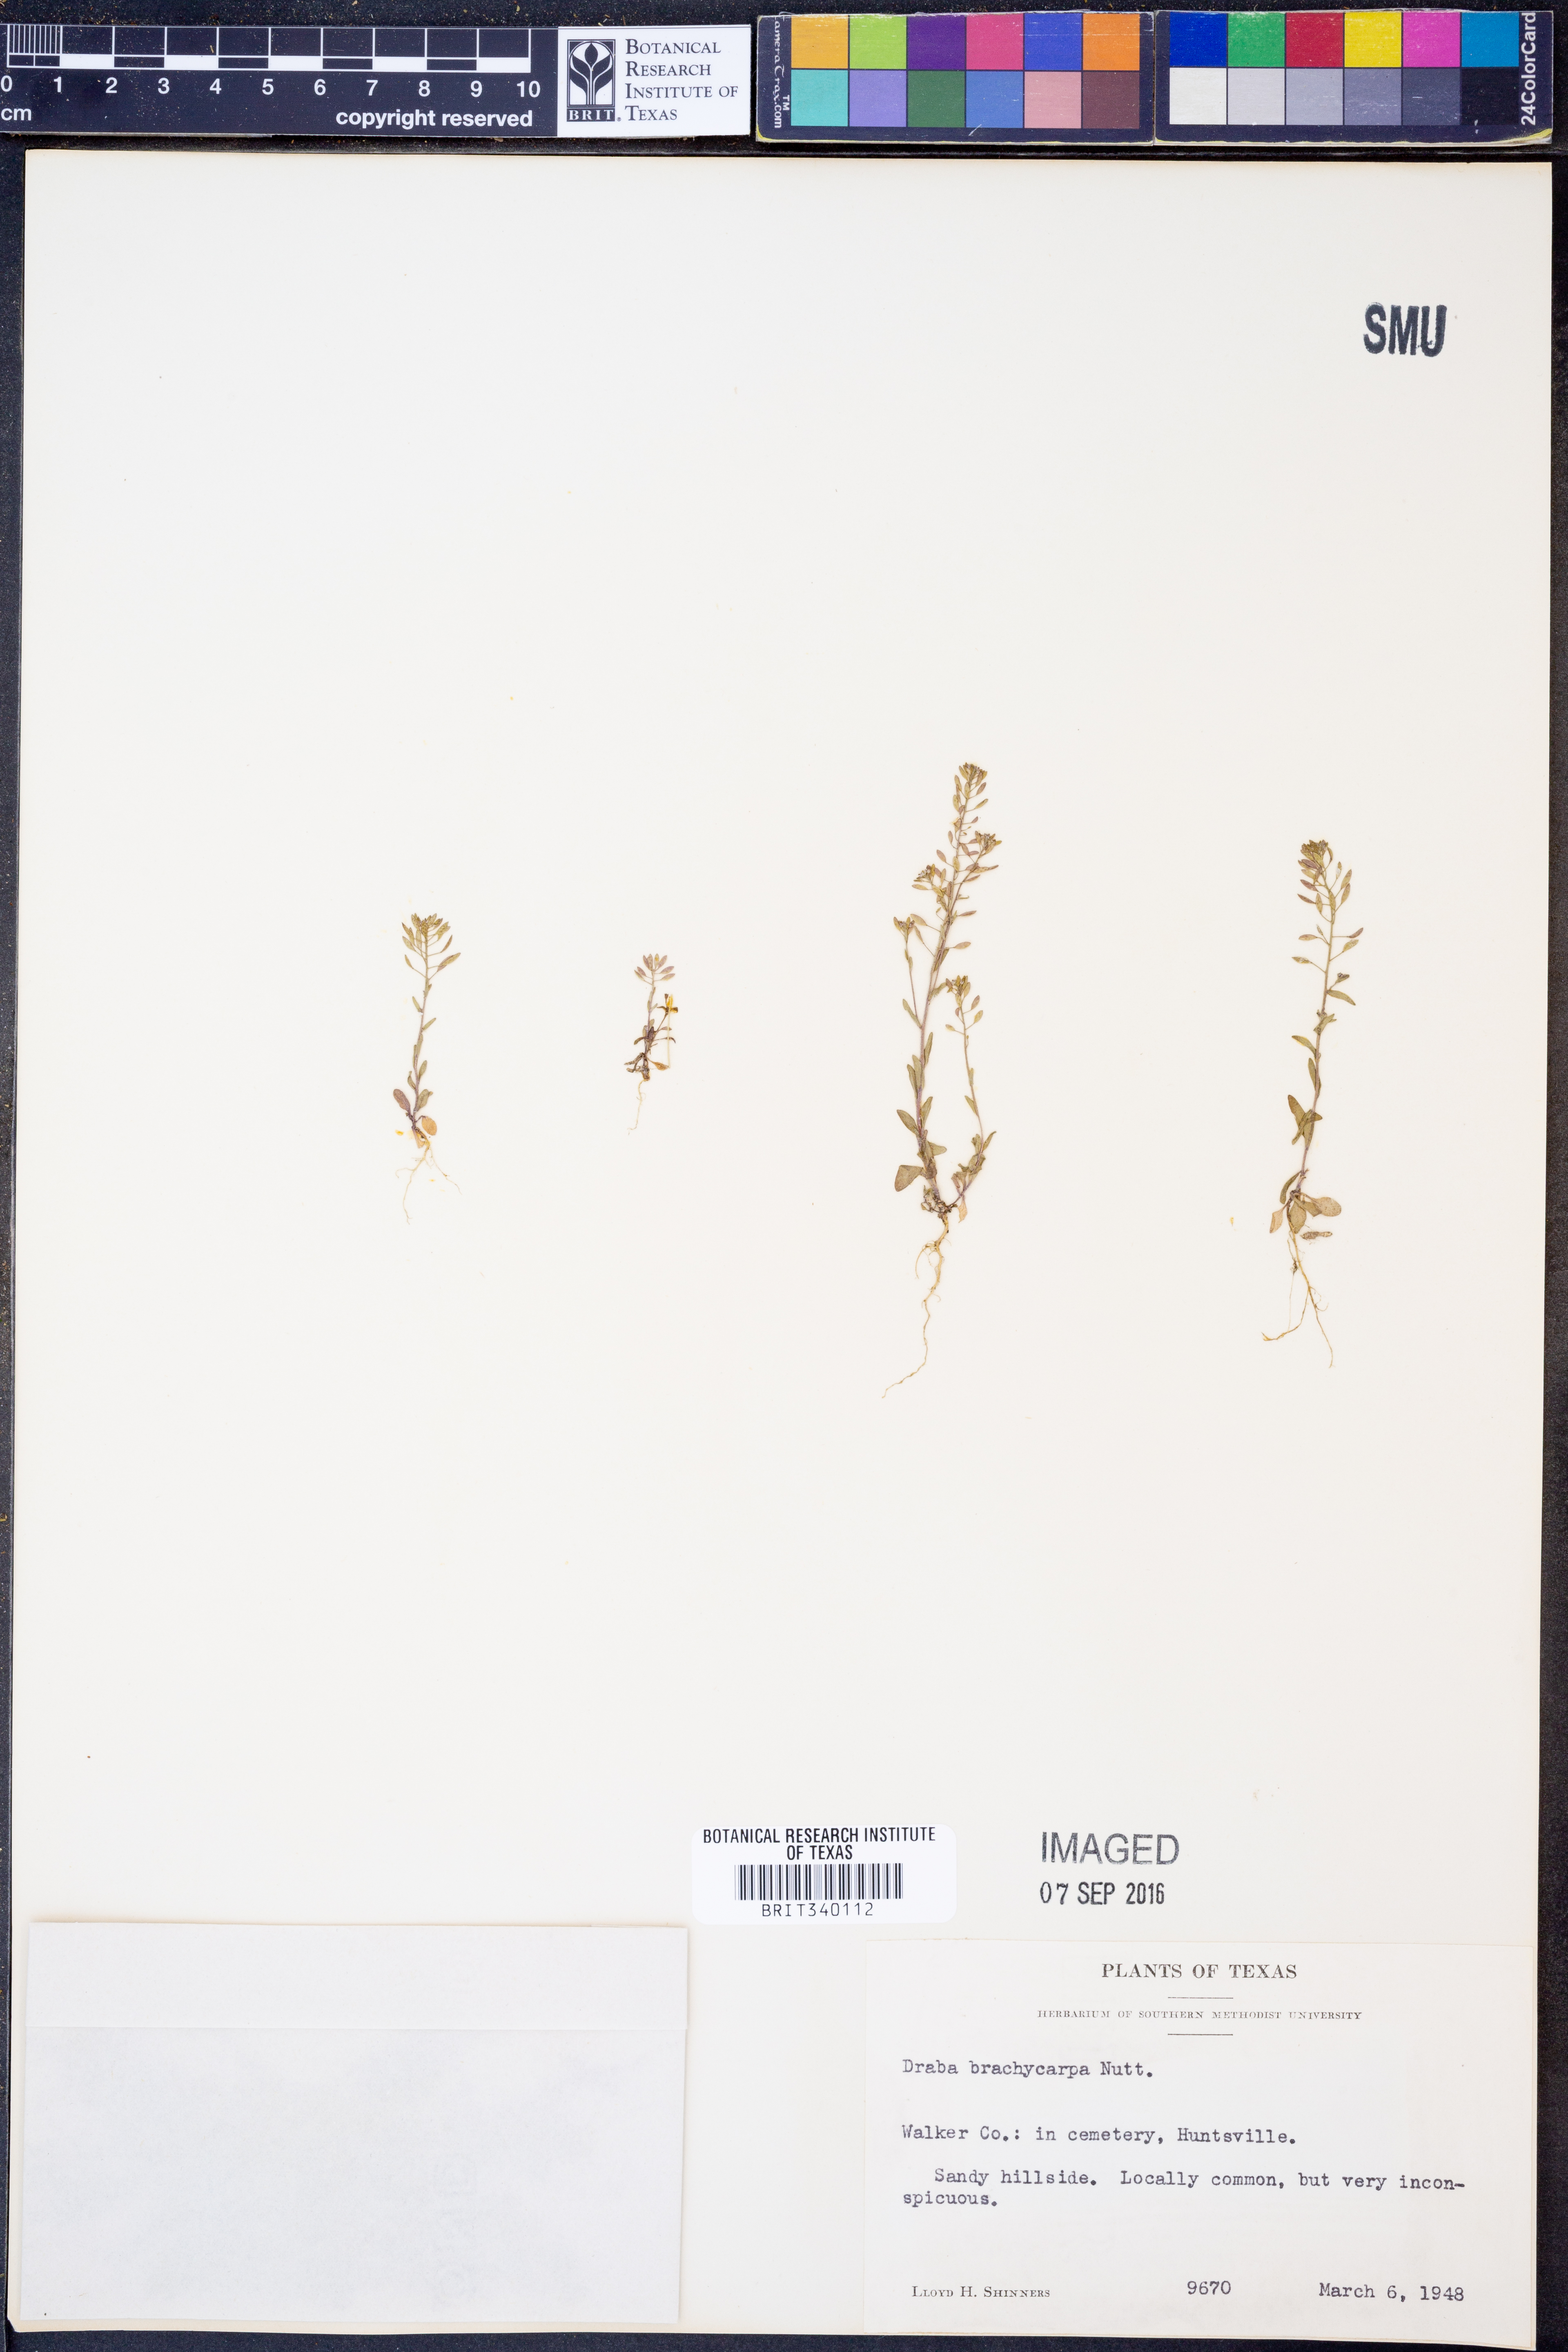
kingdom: Plantae
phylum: Tracheophyta
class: Magnoliopsida
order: Brassicales
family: Brassicaceae
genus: Abdra
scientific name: Abdra brachycarpa
